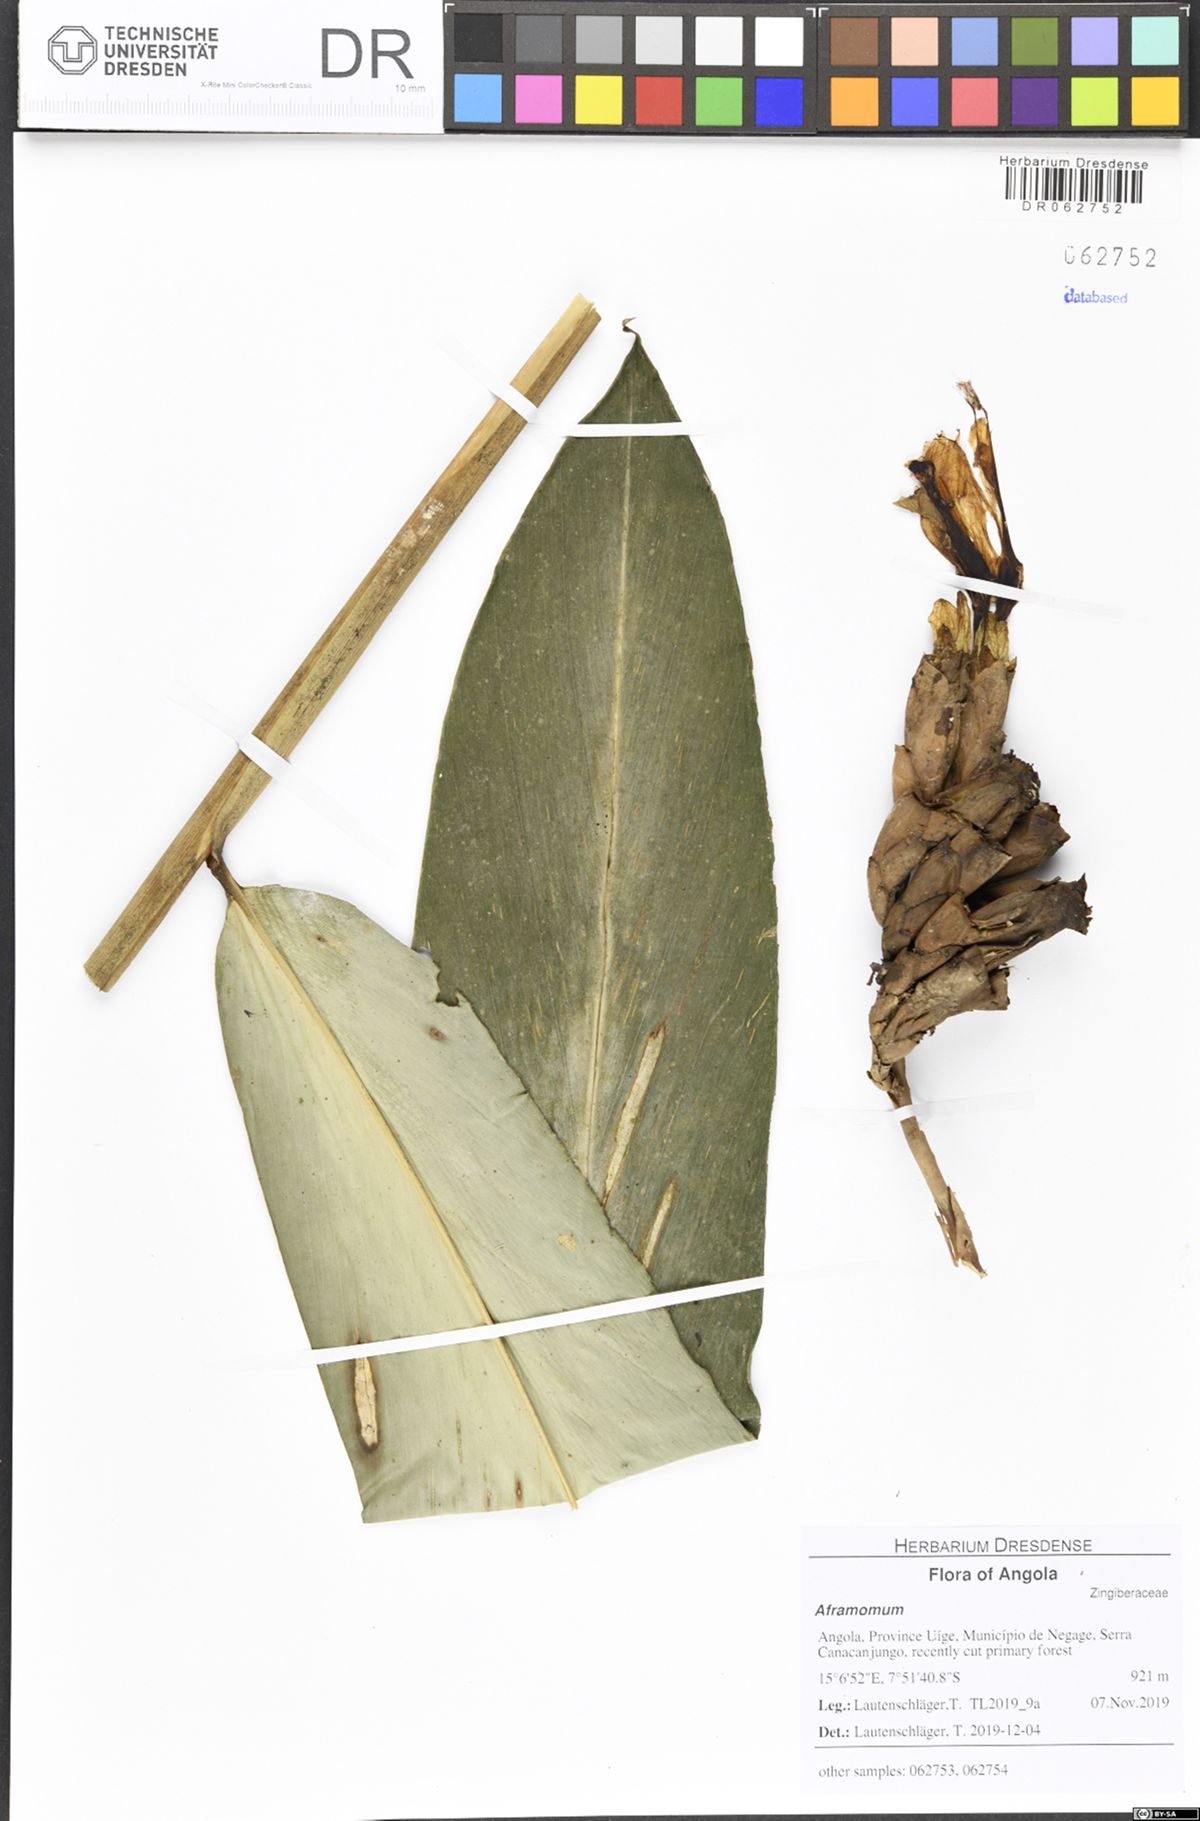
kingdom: Plantae
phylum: Tracheophyta
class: Liliopsida
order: Zingiberales
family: Zingiberaceae
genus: Aframomum
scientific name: Aframomum giganteum
